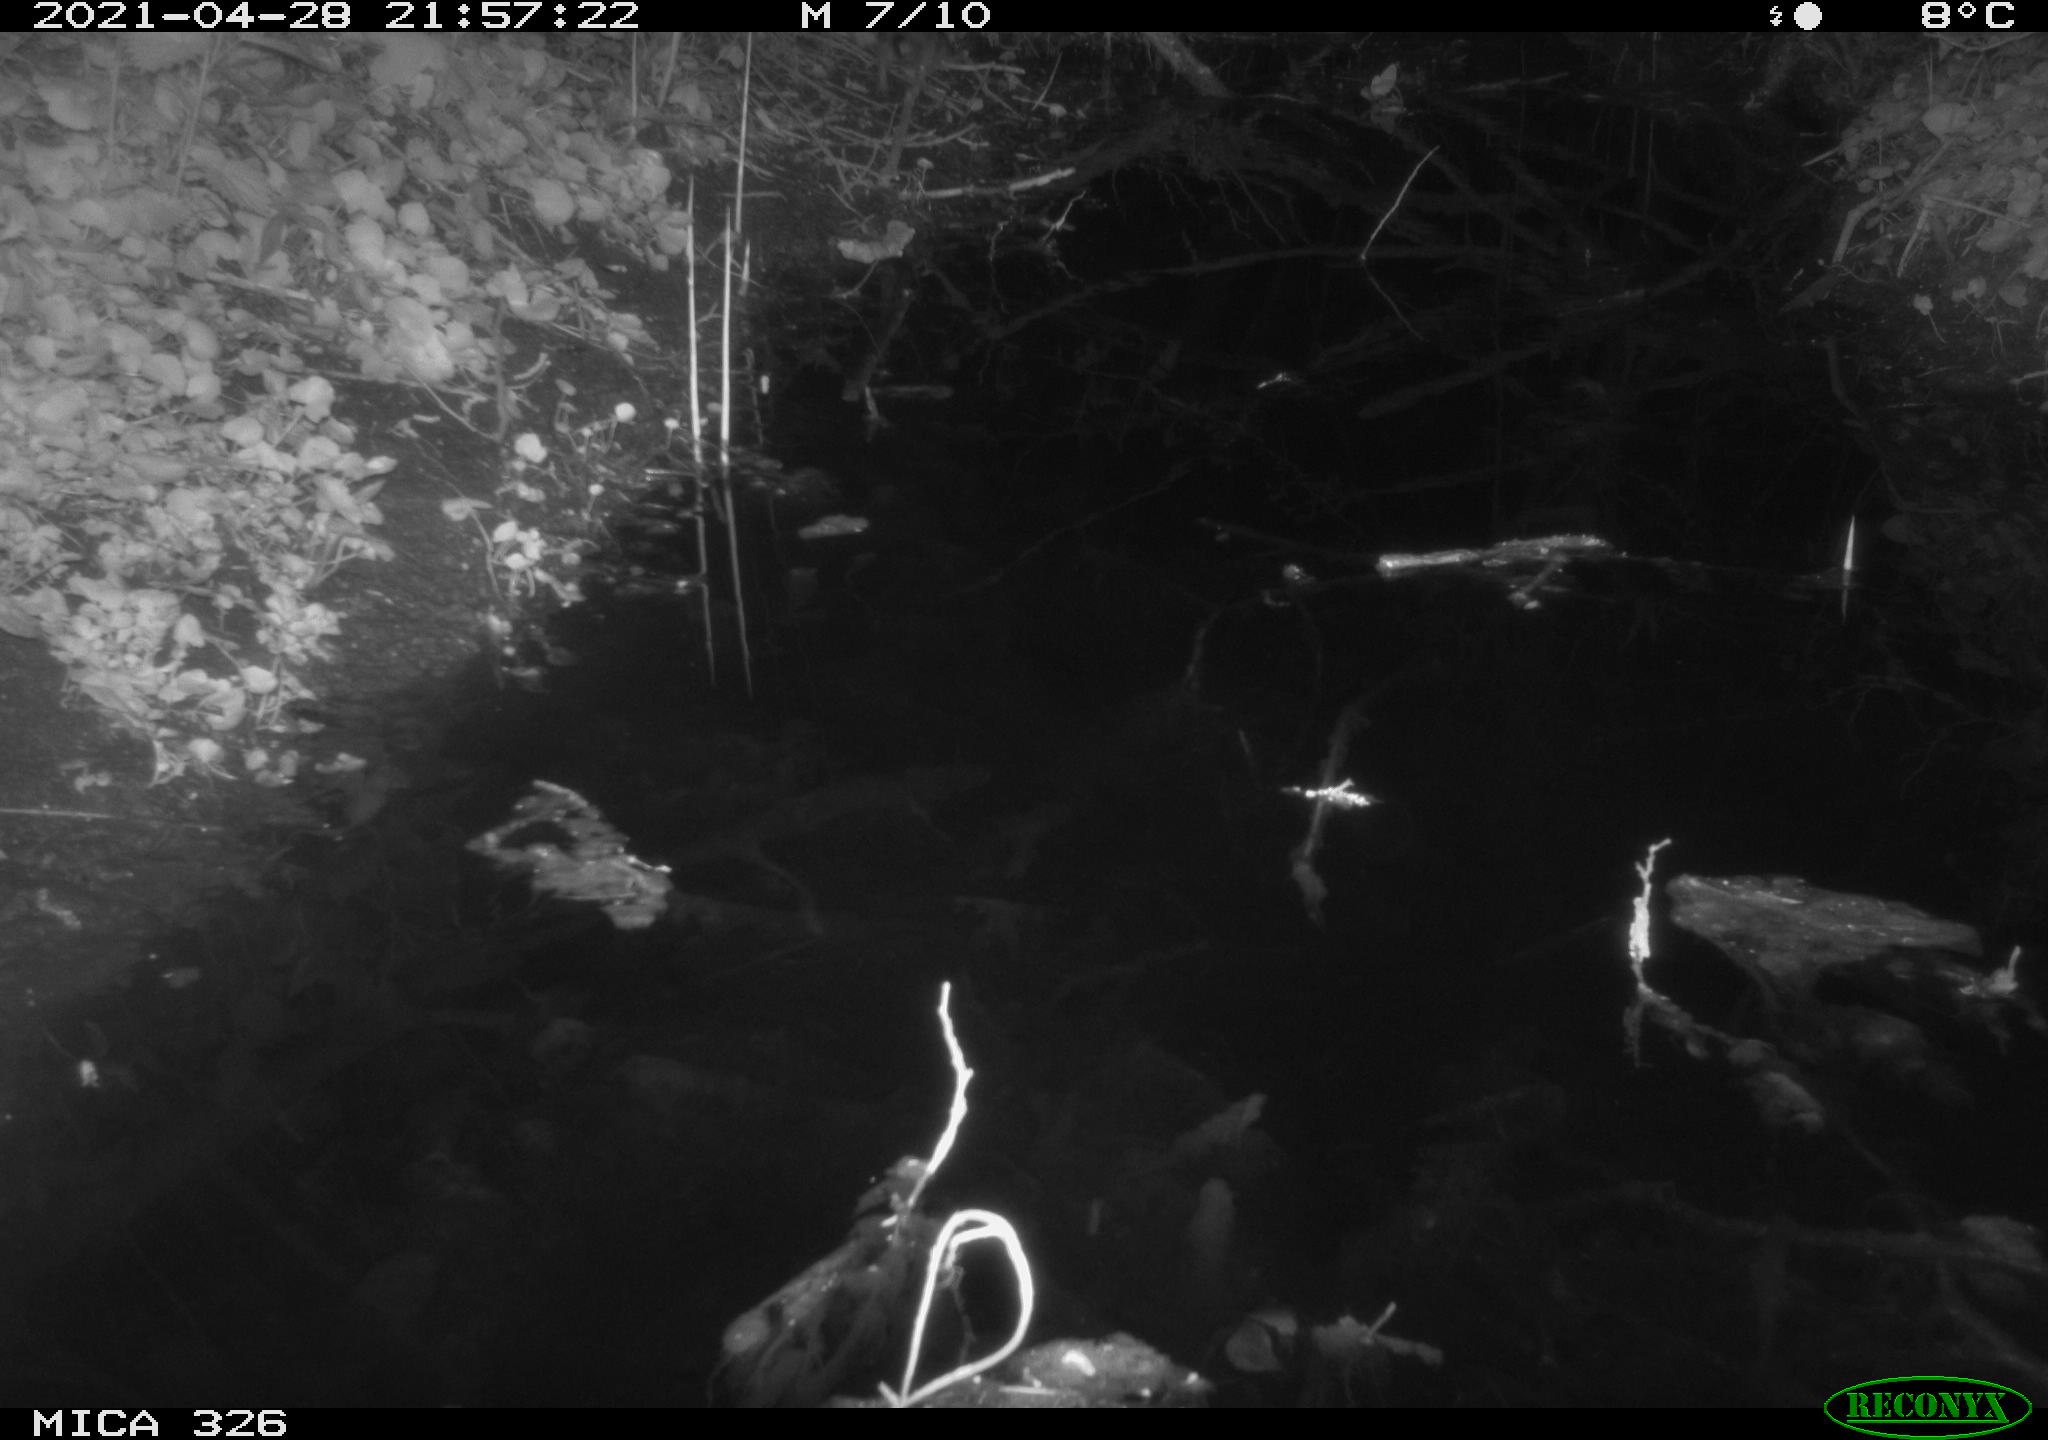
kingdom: Animalia
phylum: Chordata
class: Mammalia
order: Rodentia
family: Muridae
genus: Rattus
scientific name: Rattus norvegicus
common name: Brown rat
